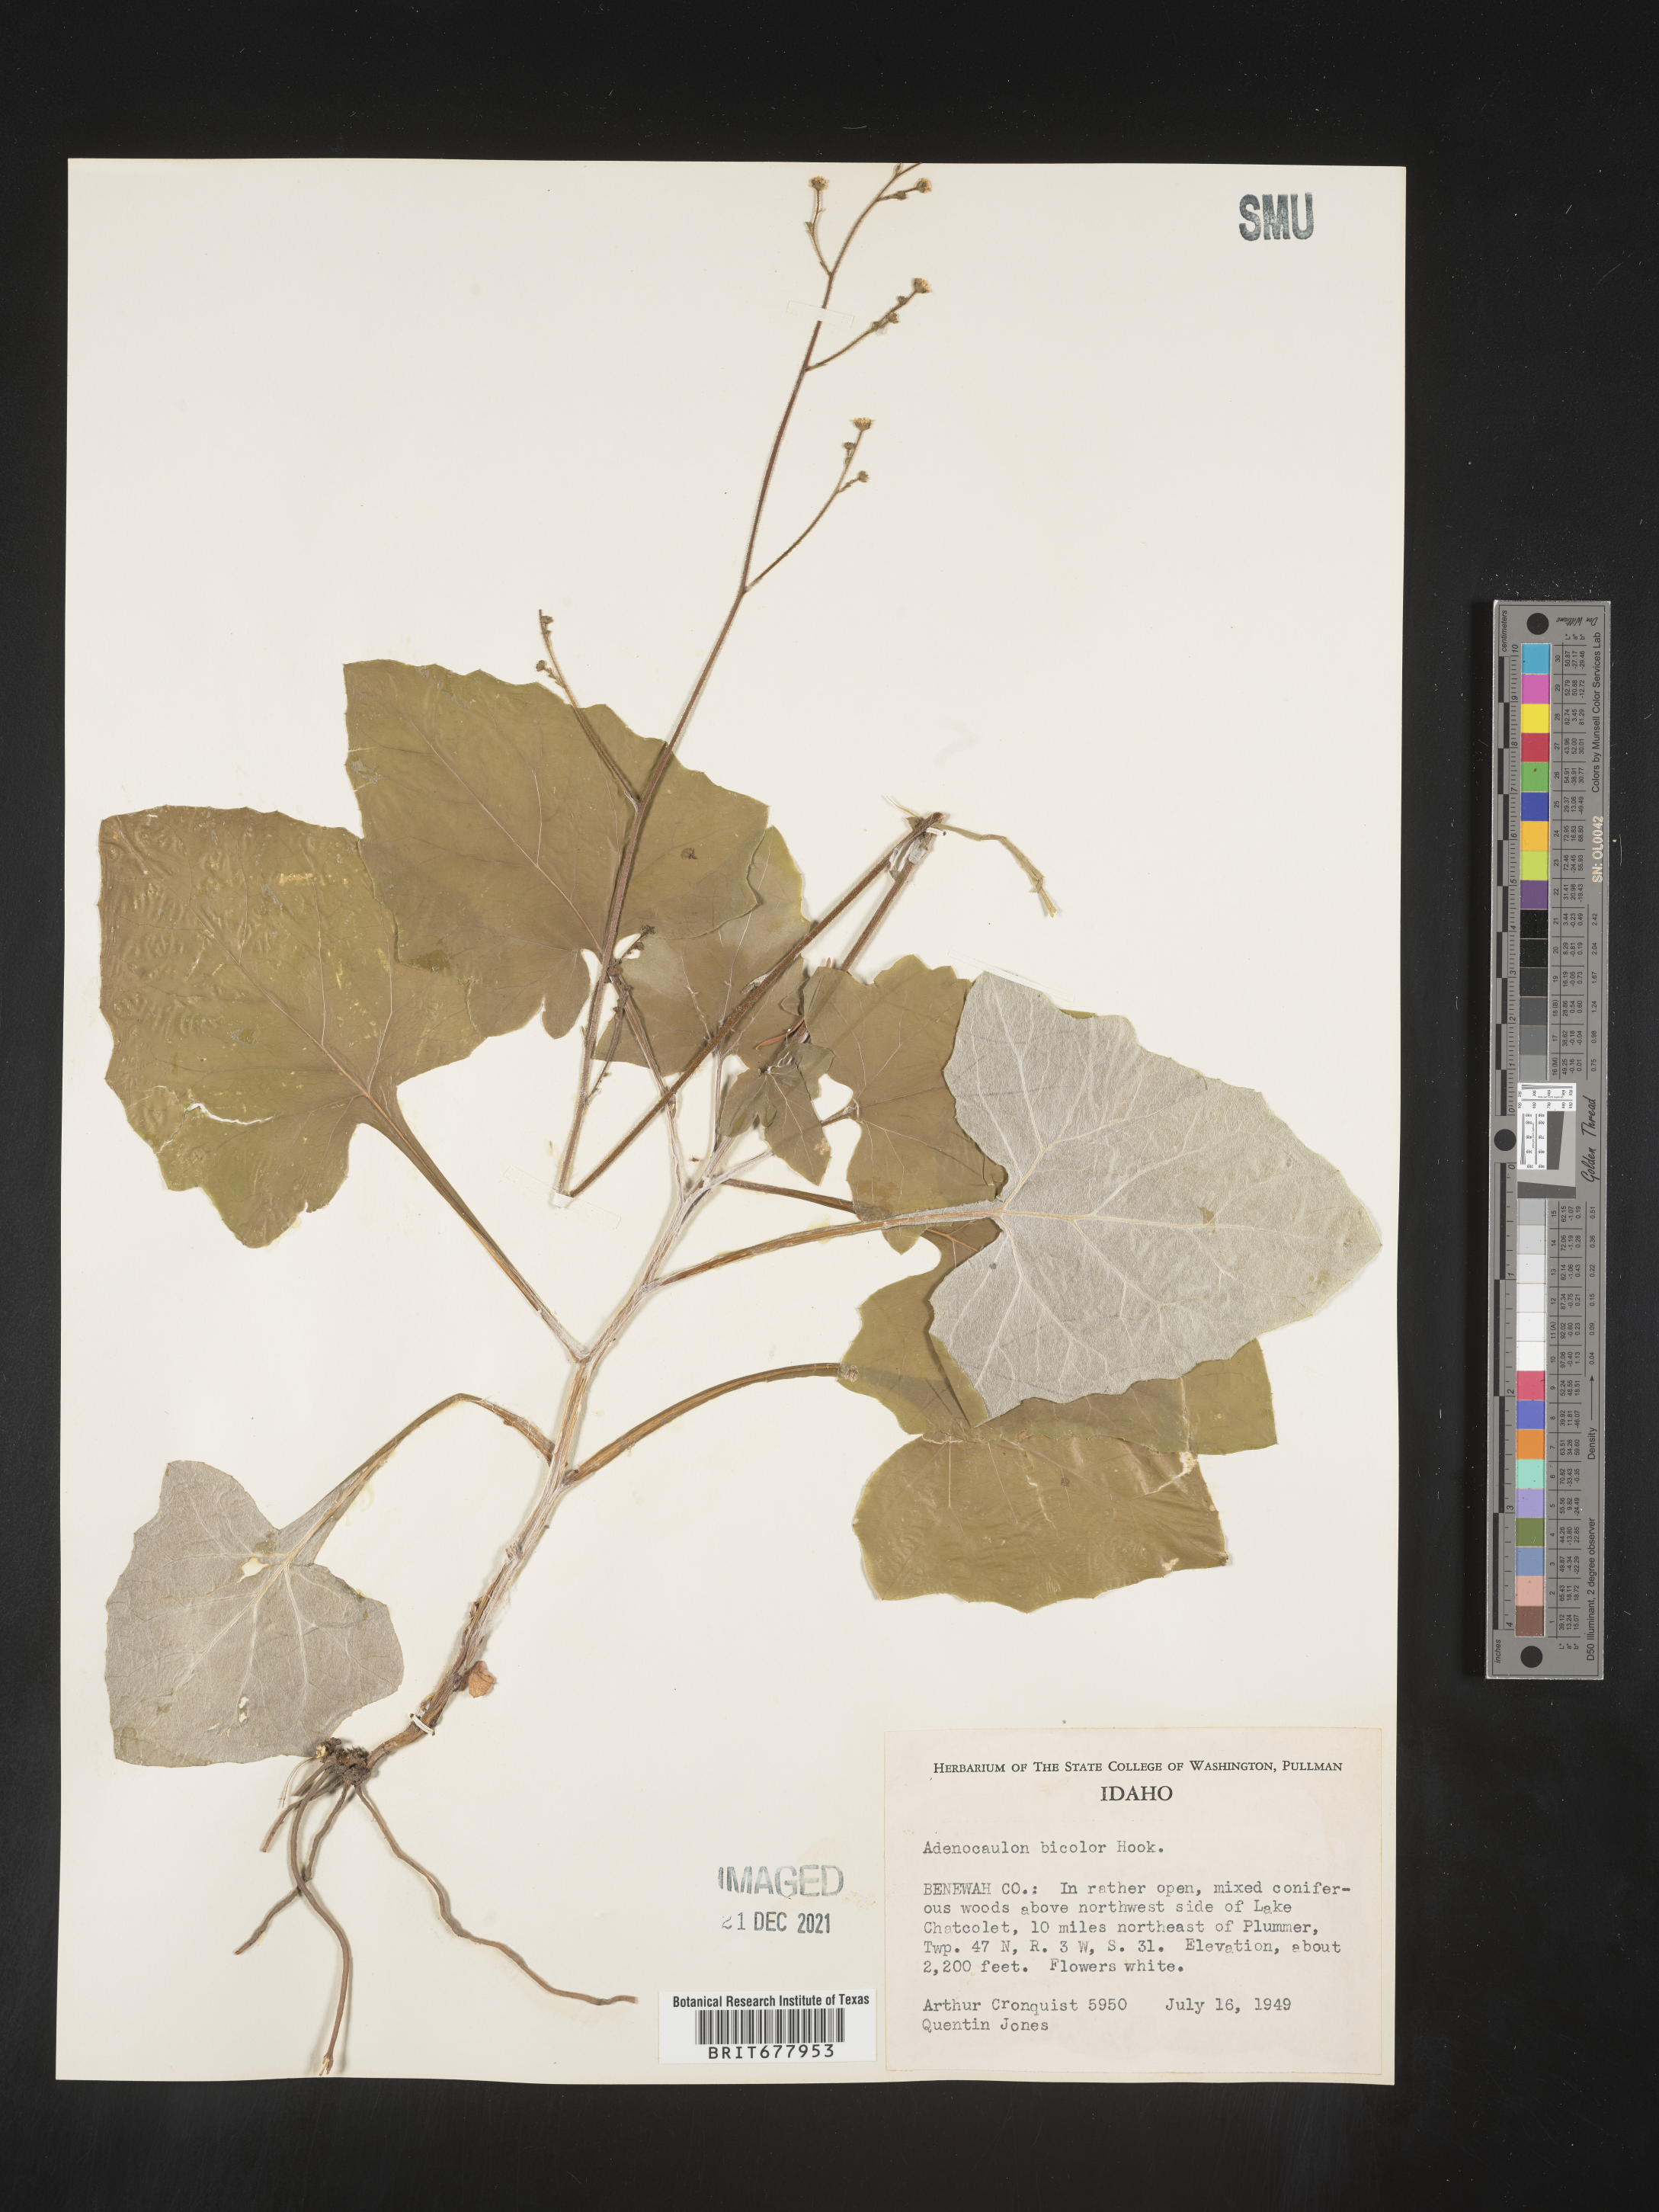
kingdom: Plantae
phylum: Tracheophyta
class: Magnoliopsida
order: Asterales
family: Asteraceae
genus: Adenocaulon
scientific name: Adenocaulon
